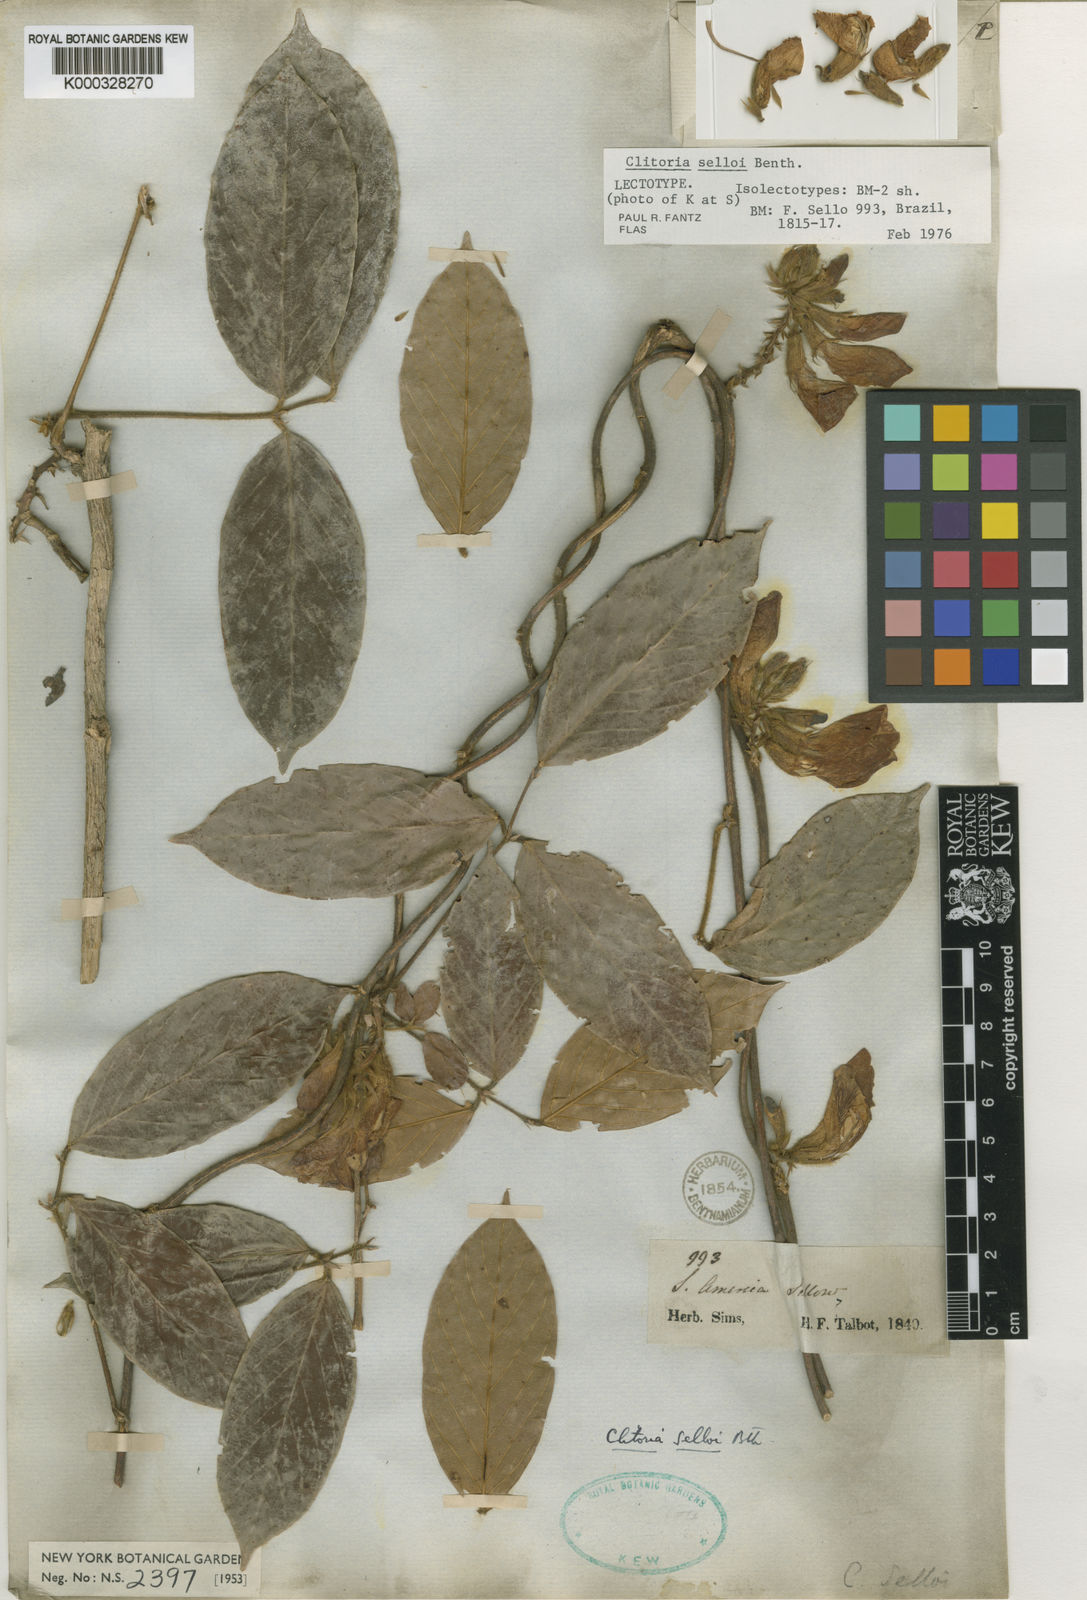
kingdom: Plantae
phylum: Tracheophyta
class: Magnoliopsida
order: Fabales
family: Fabaceae
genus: Clitoria
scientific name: Clitoria selloi
